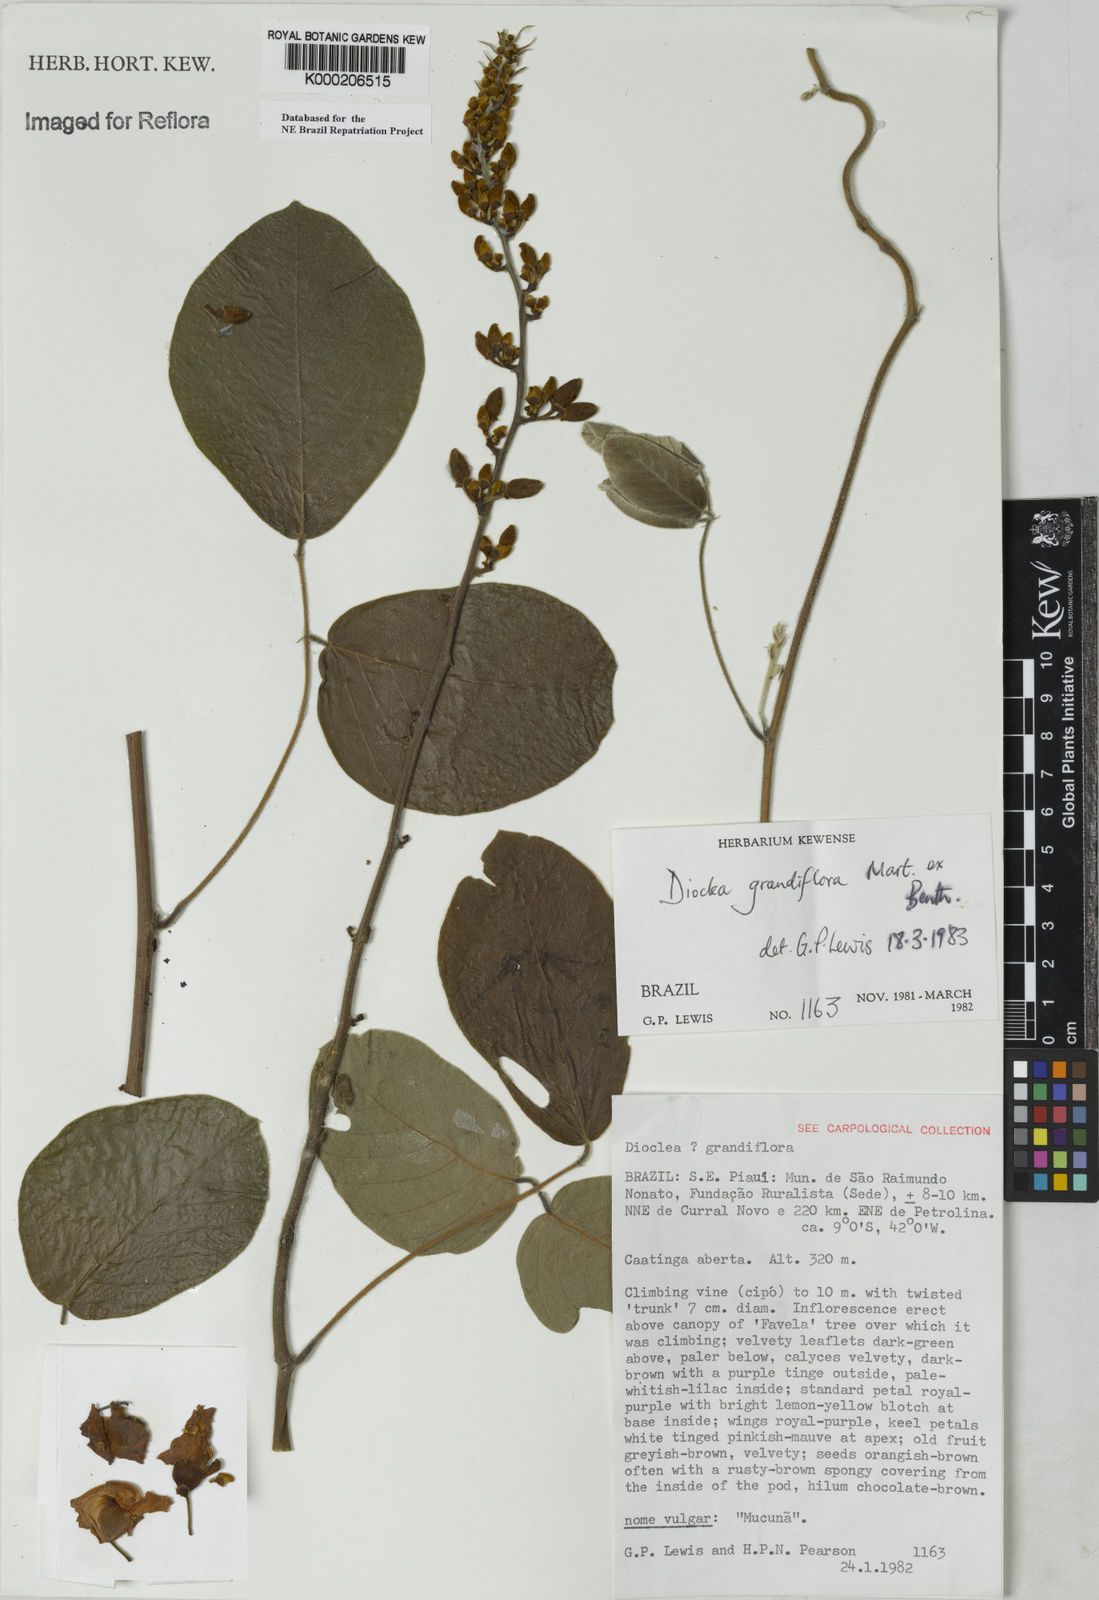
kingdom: Plantae
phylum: Tracheophyta
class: Magnoliopsida
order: Fabales
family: Fabaceae
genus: Macropsychanthus
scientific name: Macropsychanthus grandiflorus
